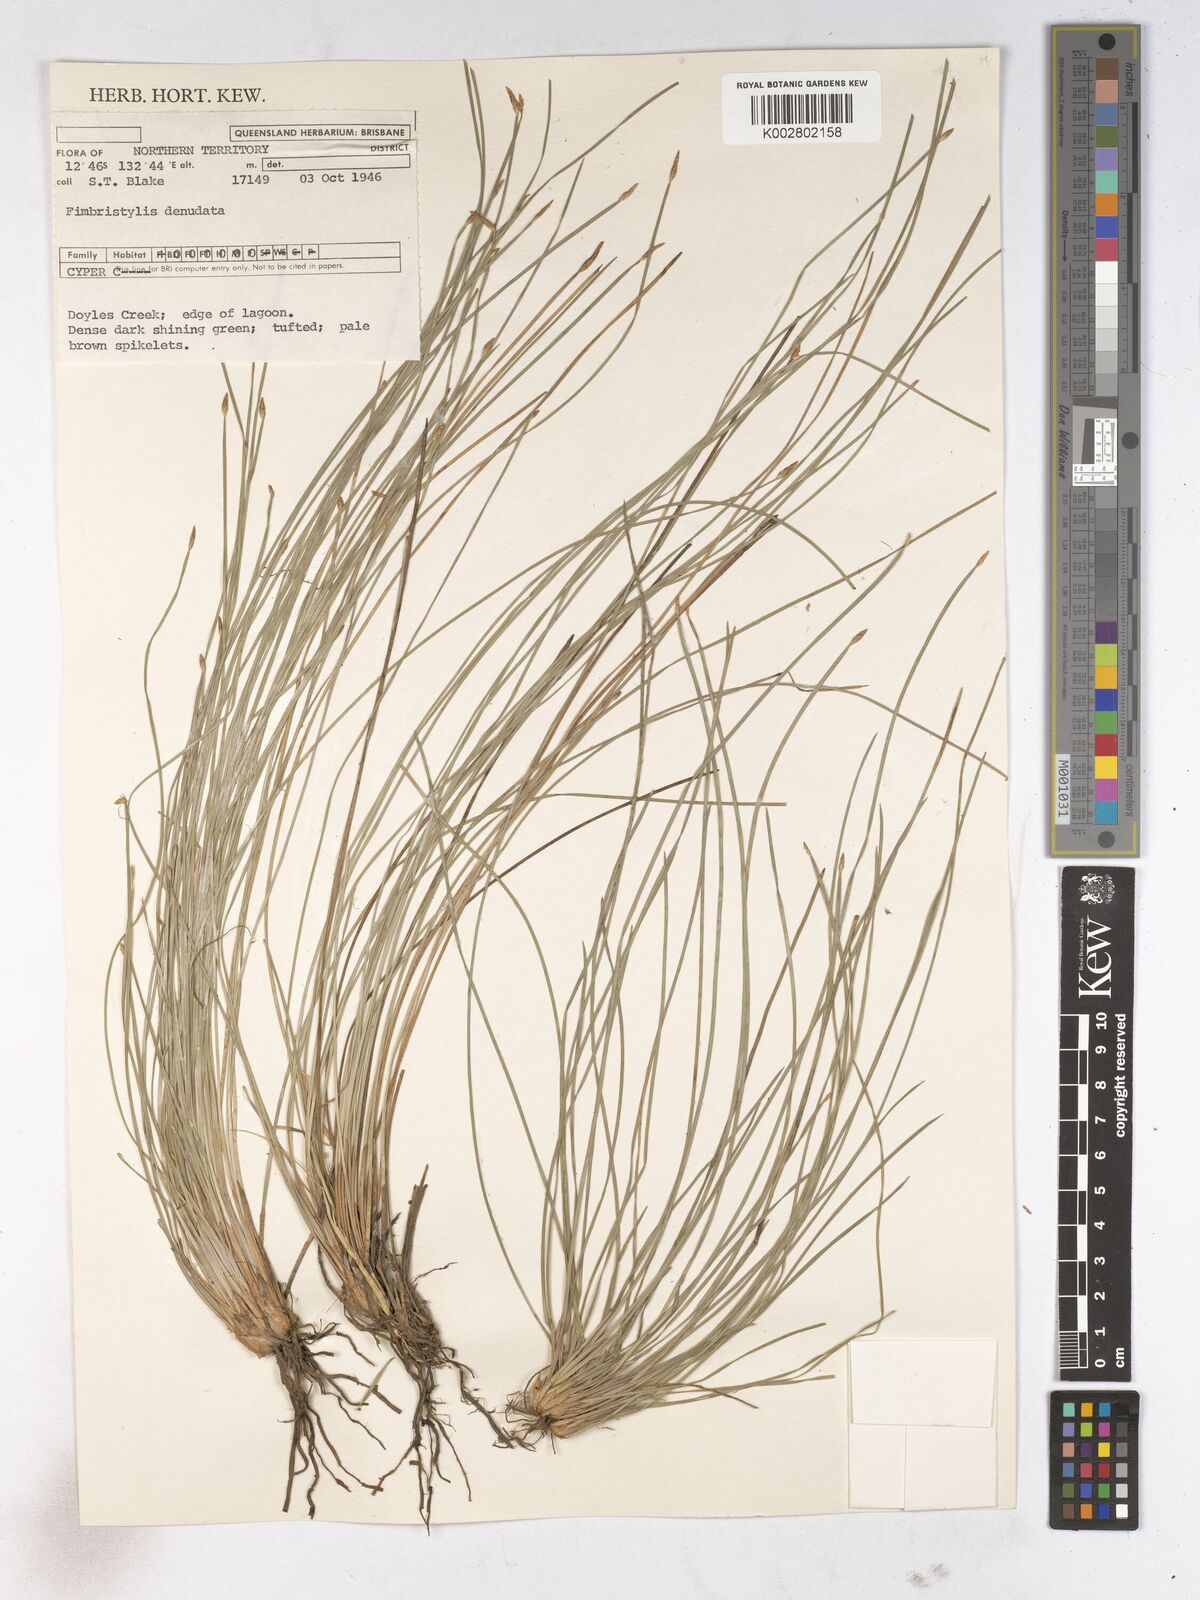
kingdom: Plantae
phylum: Tracheophyta
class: Liliopsida
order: Poales
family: Cyperaceae
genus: Fimbristylis
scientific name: Fimbristylis denudata
